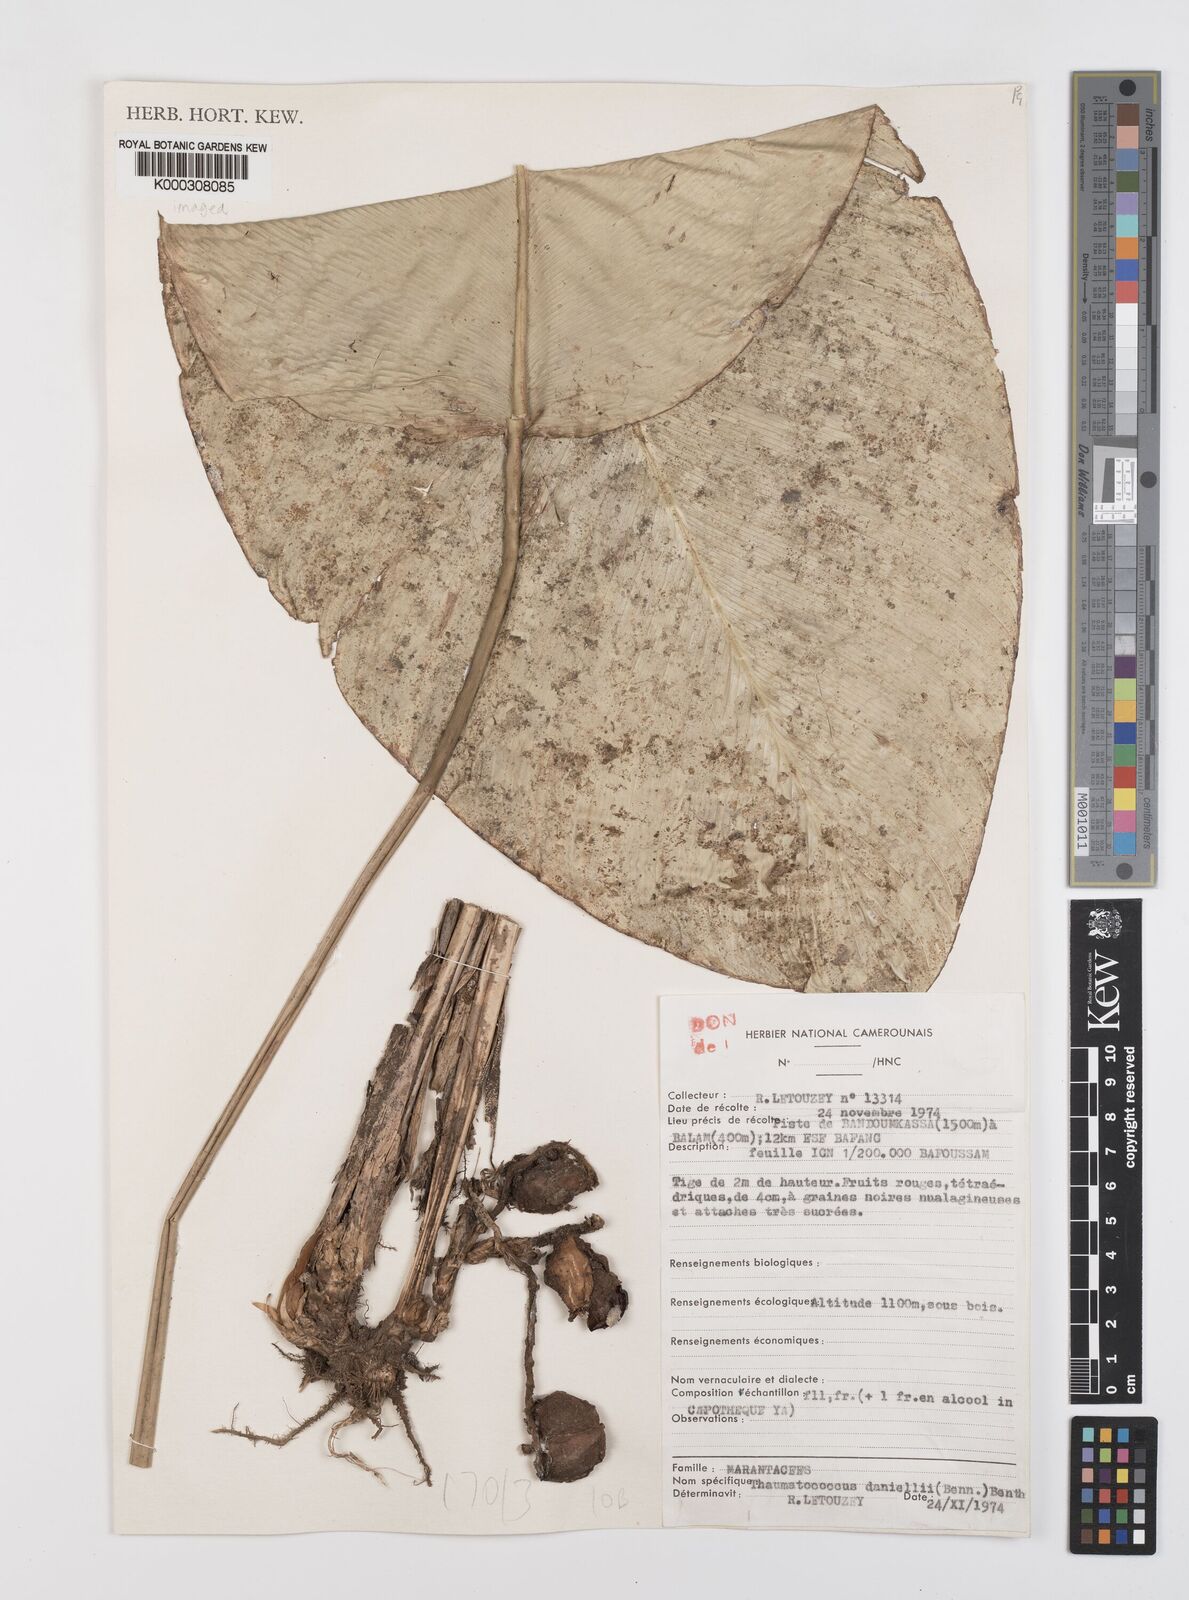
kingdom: Plantae
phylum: Tracheophyta
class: Liliopsida
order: Zingiberales
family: Marantaceae
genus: Thaumatococcus
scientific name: Thaumatococcus
